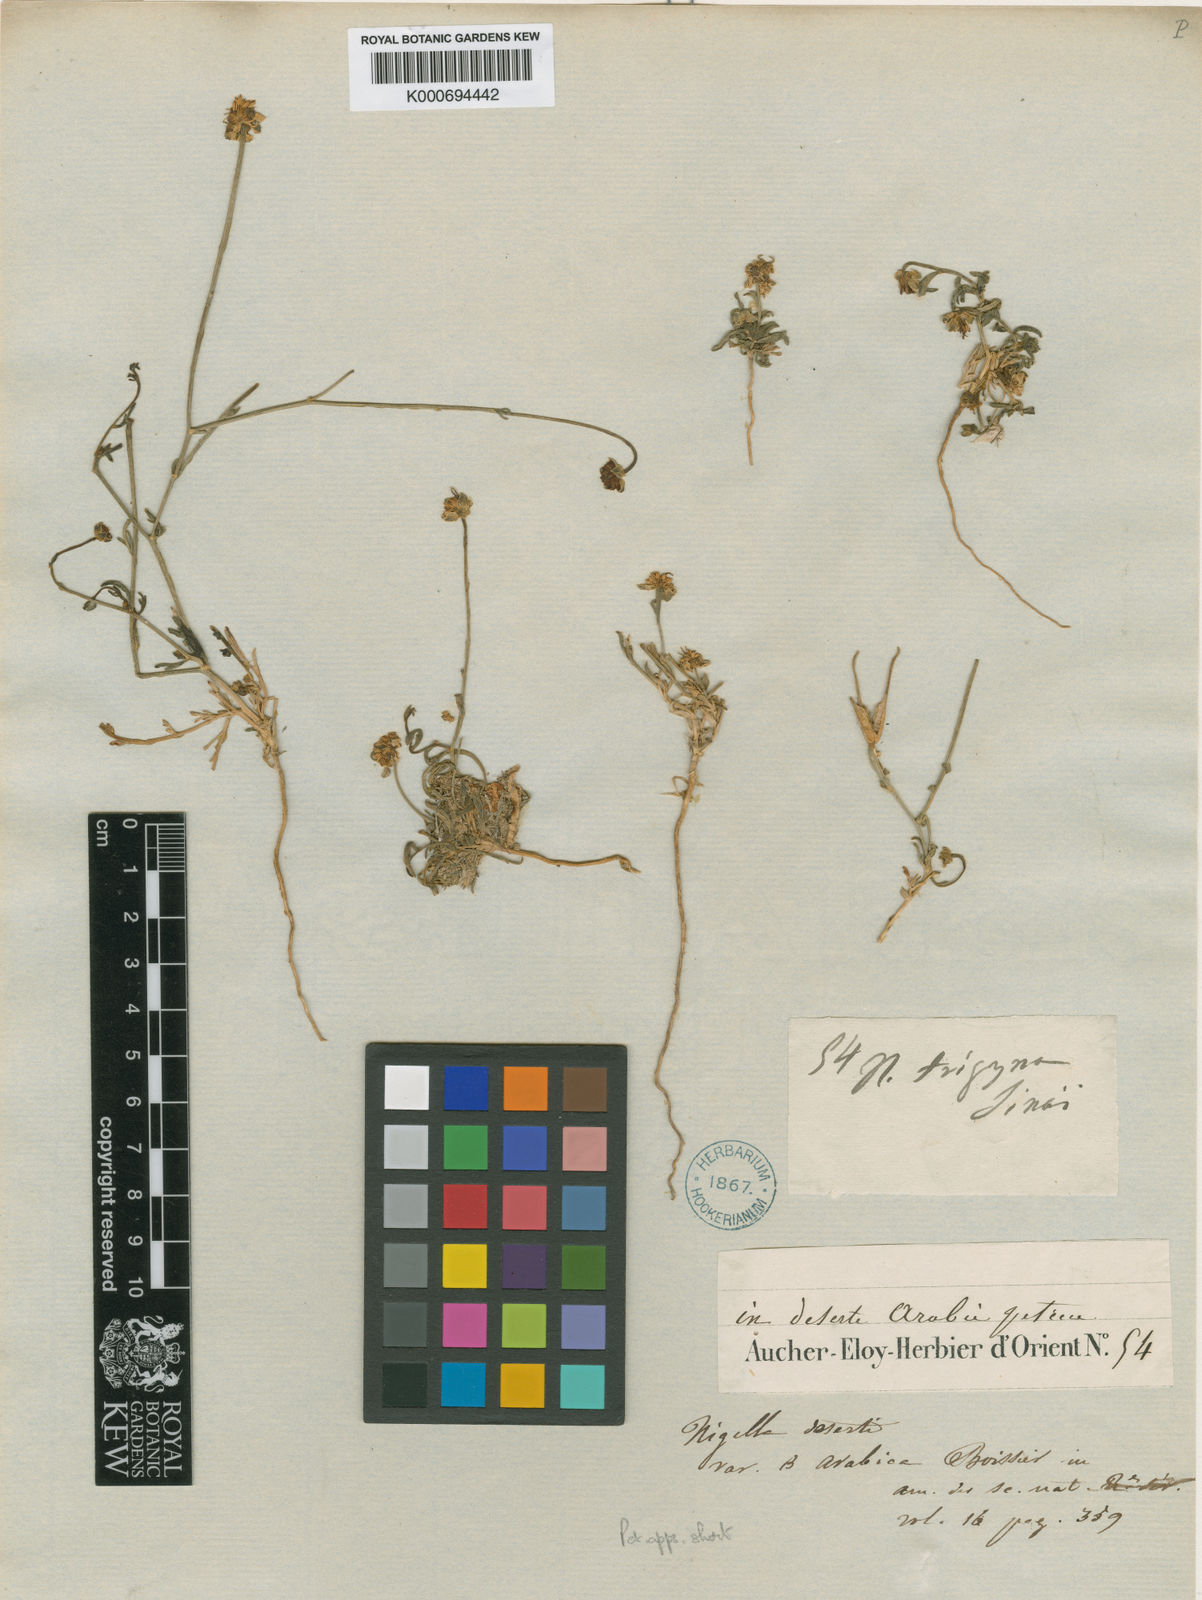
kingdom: Plantae
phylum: Tracheophyta
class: Magnoliopsida
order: Ranunculales
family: Ranunculaceae
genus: Nigella
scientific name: Nigella arvensis
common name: Wild fennel-flower
